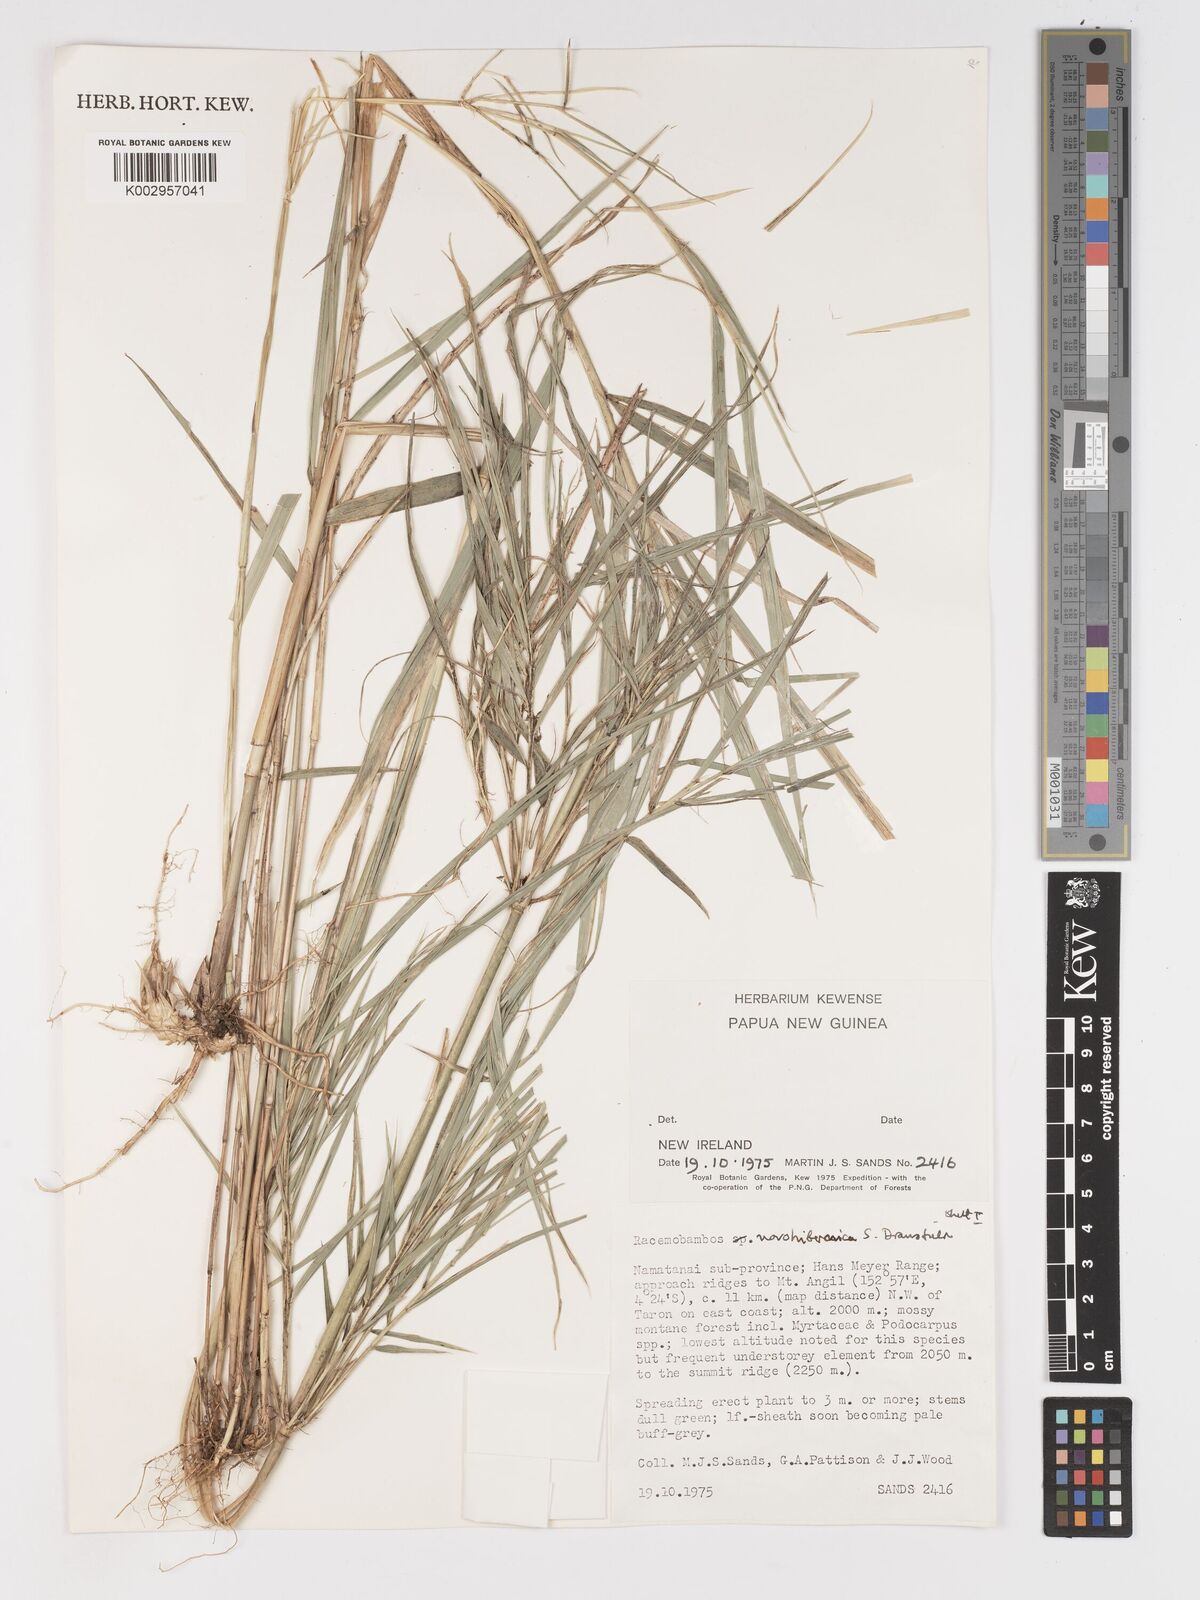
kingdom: Plantae
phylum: Tracheophyta
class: Liliopsida
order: Poales
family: Poaceae
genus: Racemobambos
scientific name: Racemobambos novohibernica
